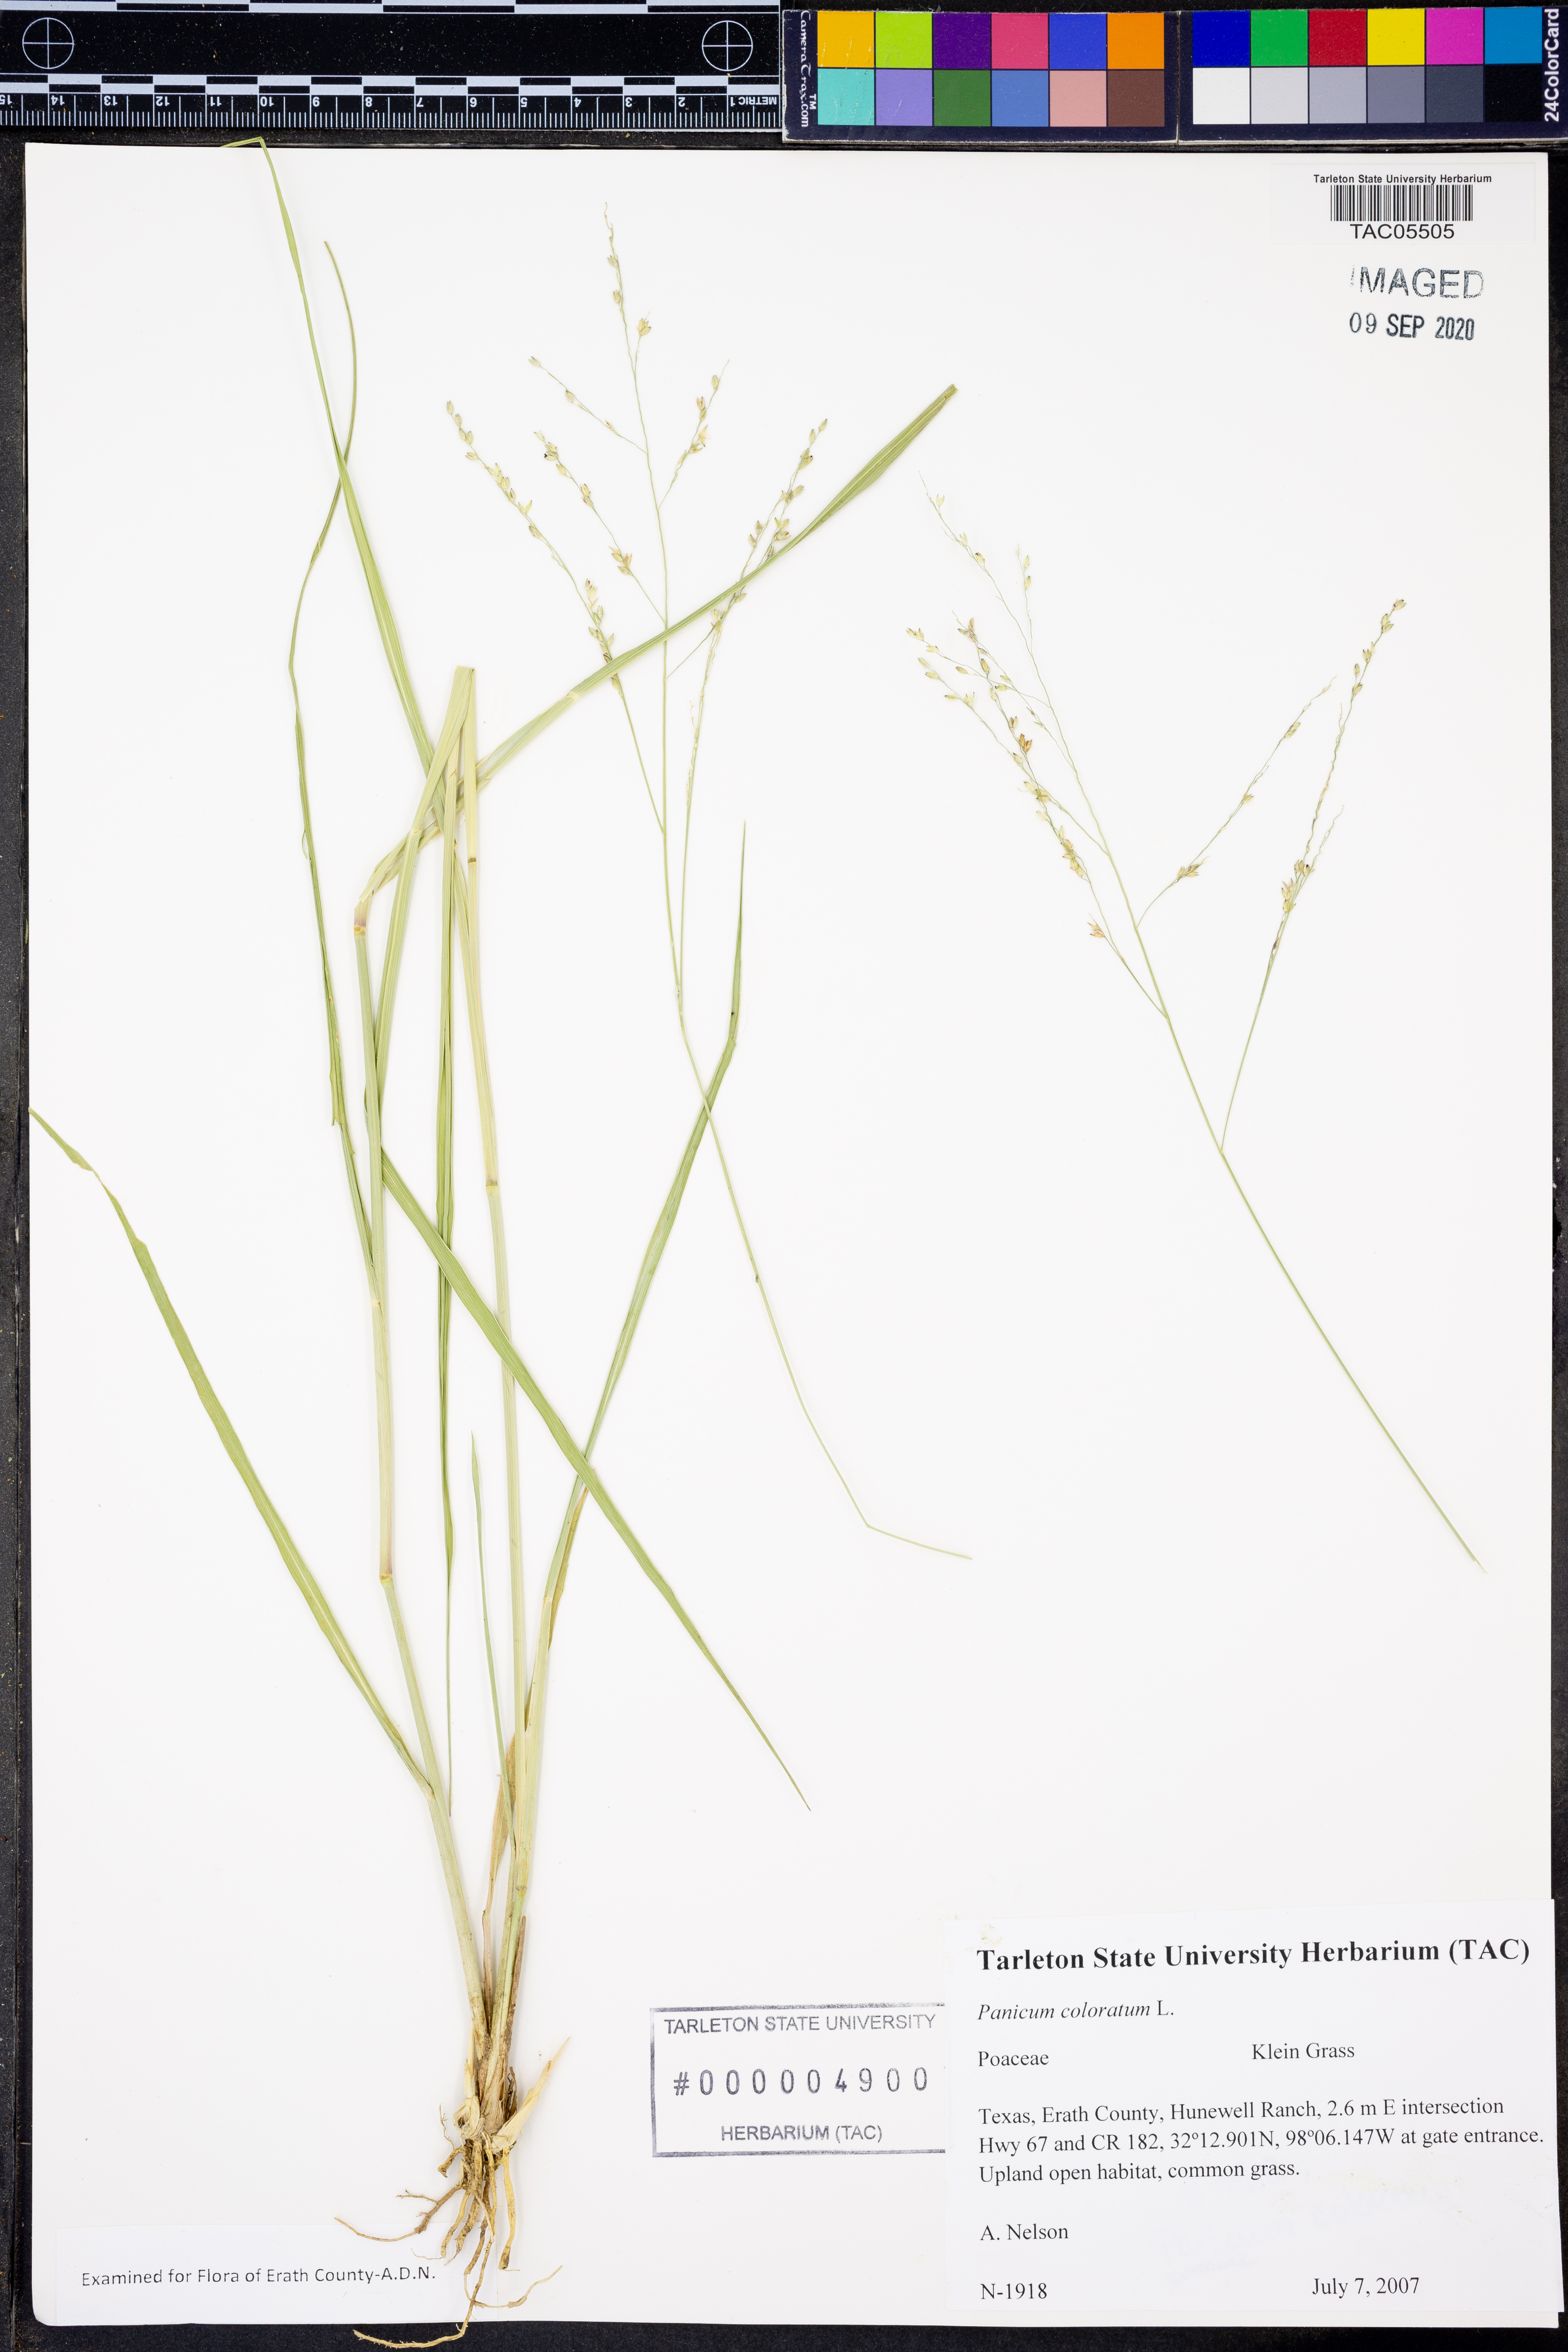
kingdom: Plantae
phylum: Tracheophyta
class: Liliopsida
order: Poales
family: Poaceae
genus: Panicum
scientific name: Panicum coloratum
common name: Kleingrass
